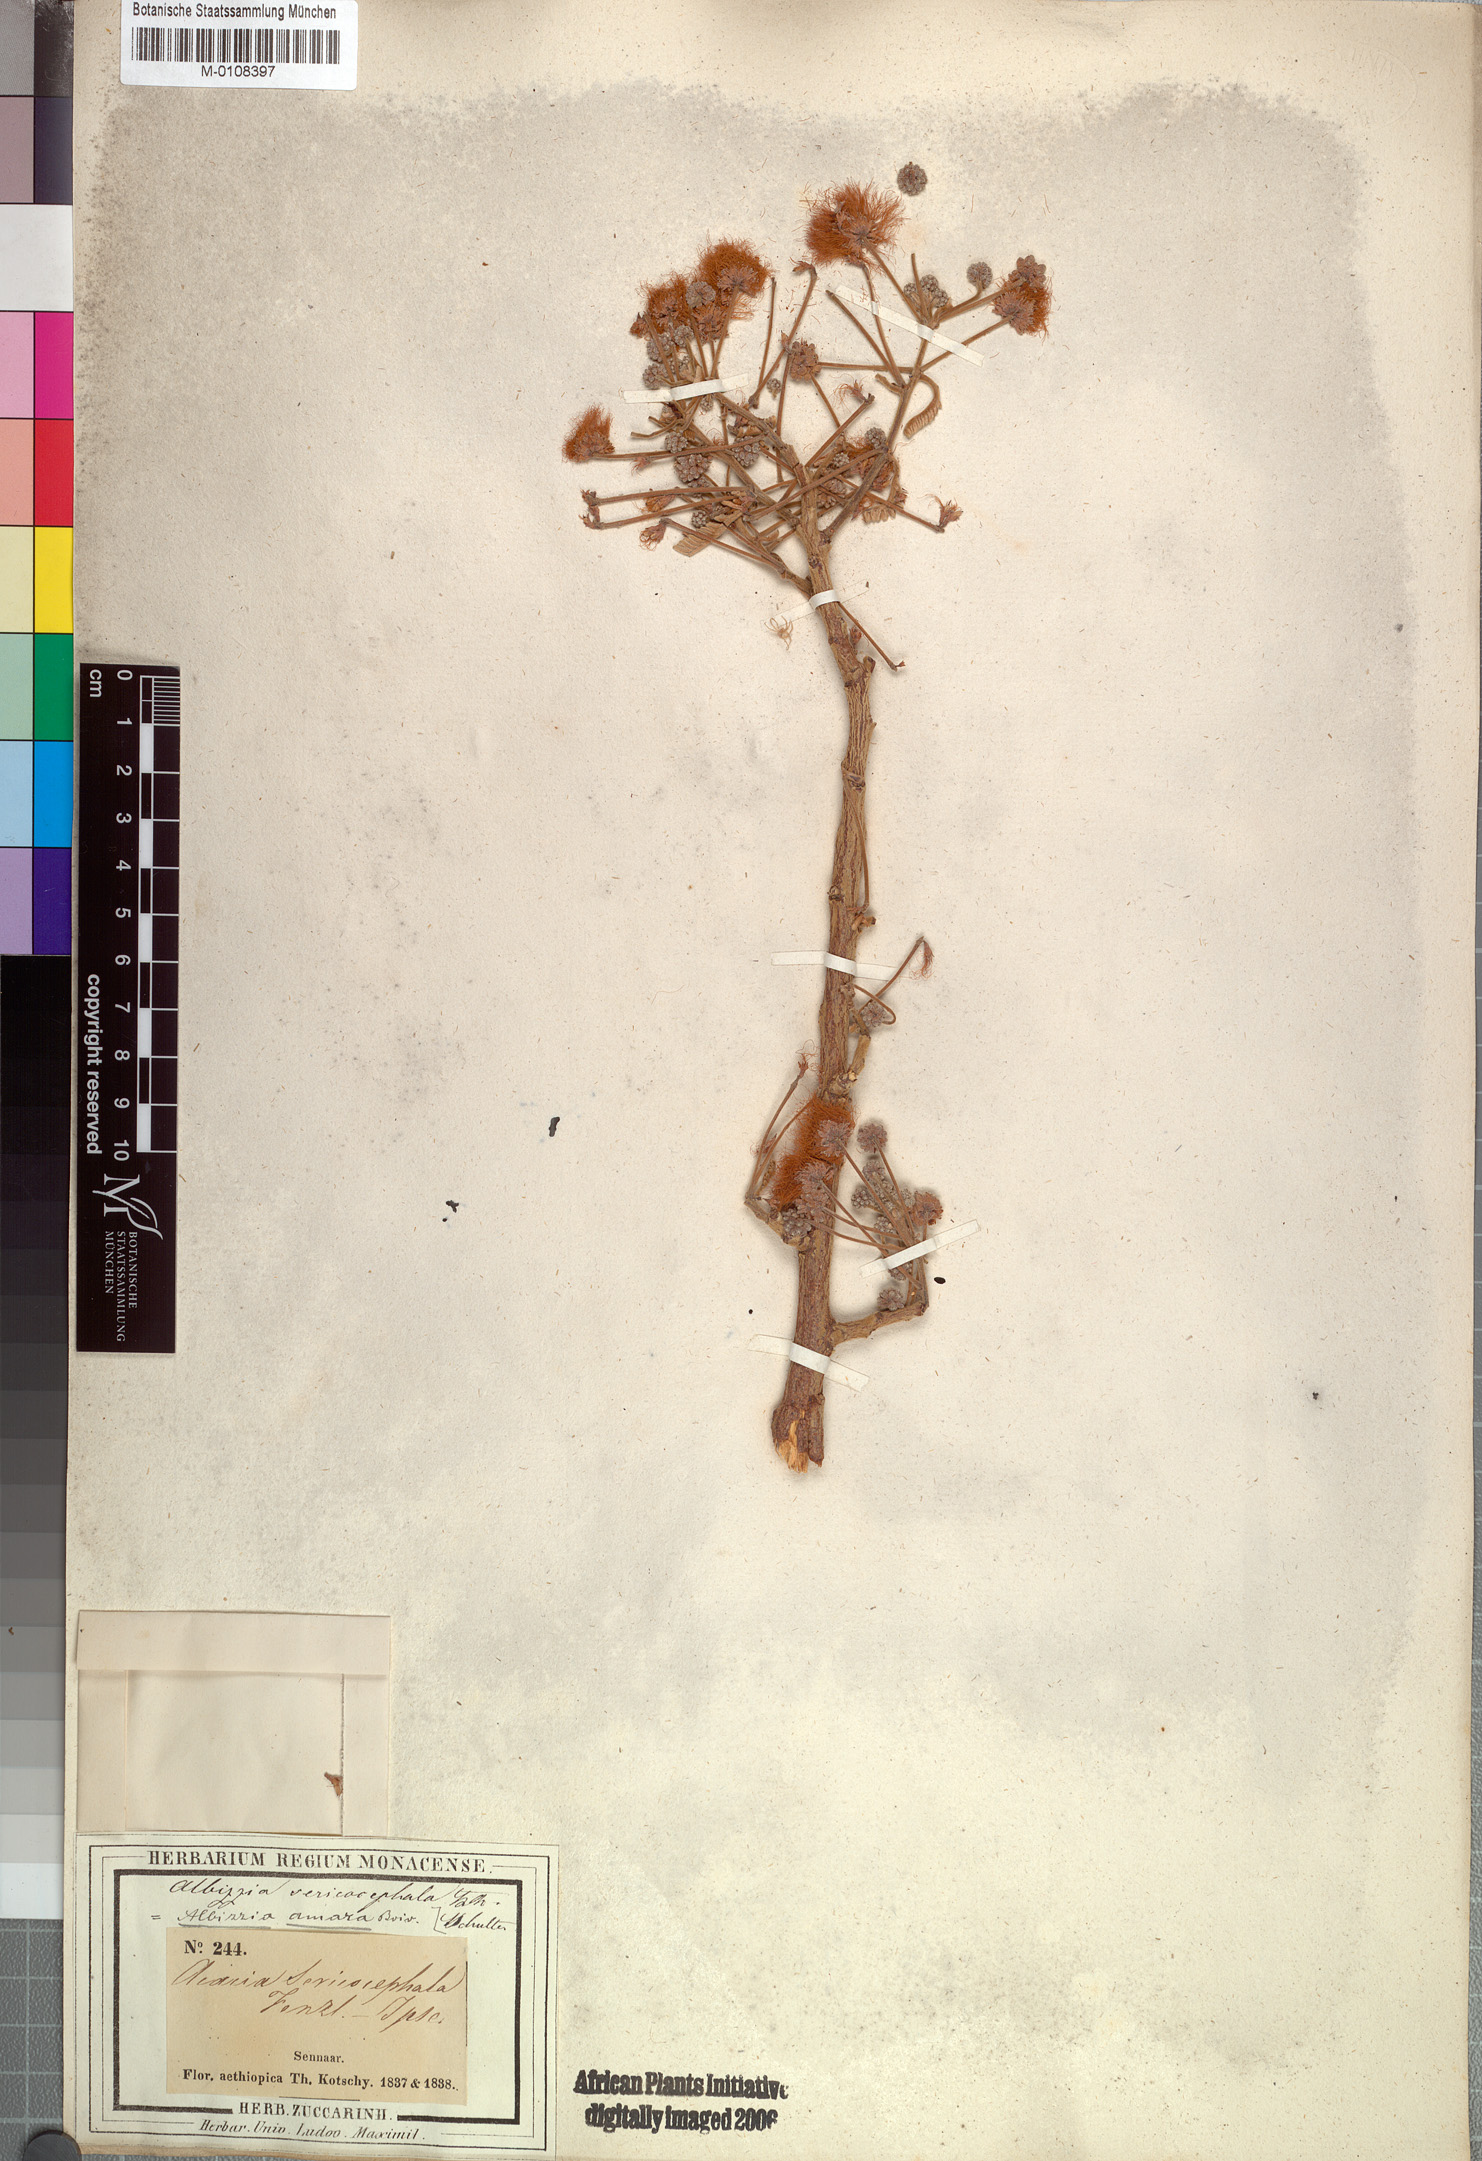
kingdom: Plantae
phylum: Tracheophyta
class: Magnoliopsida
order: Fabales
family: Fabaceae
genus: Albizia
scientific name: Albizia amara
